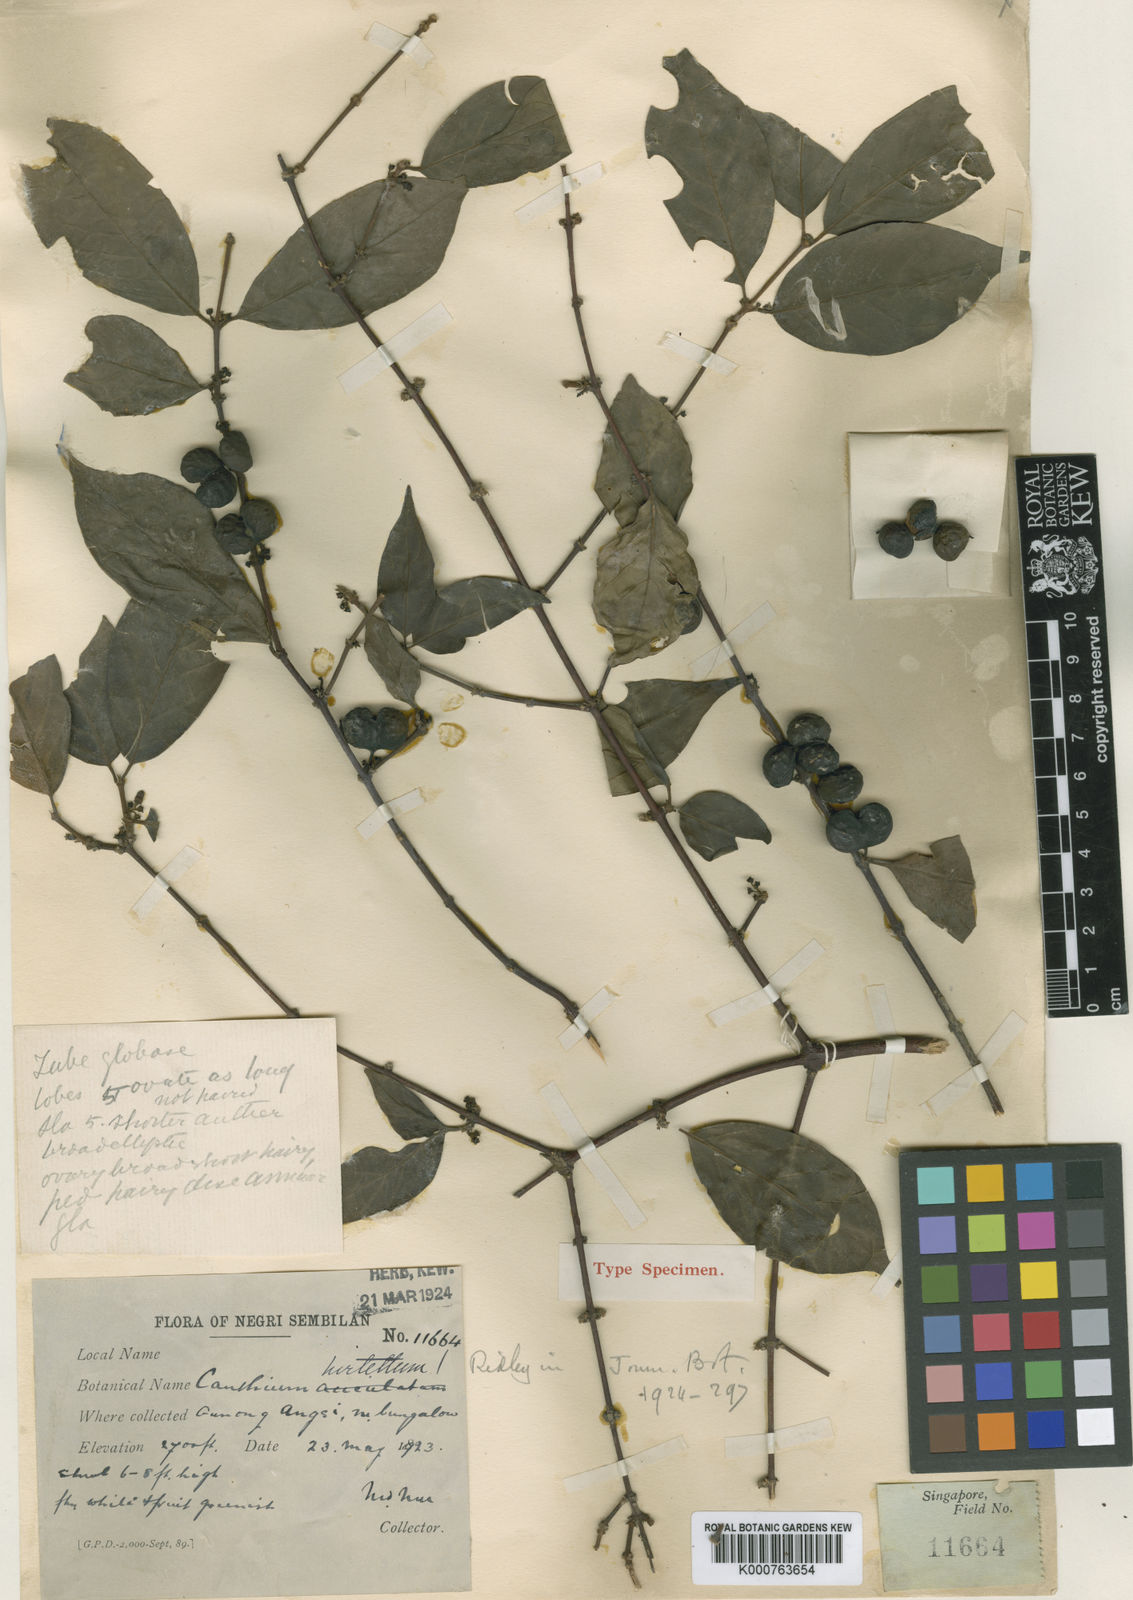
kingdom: Plantae
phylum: Tracheophyta
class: Magnoliopsida
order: Gentianales
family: Rubiaceae
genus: Canthium
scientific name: Canthium hirtellum
